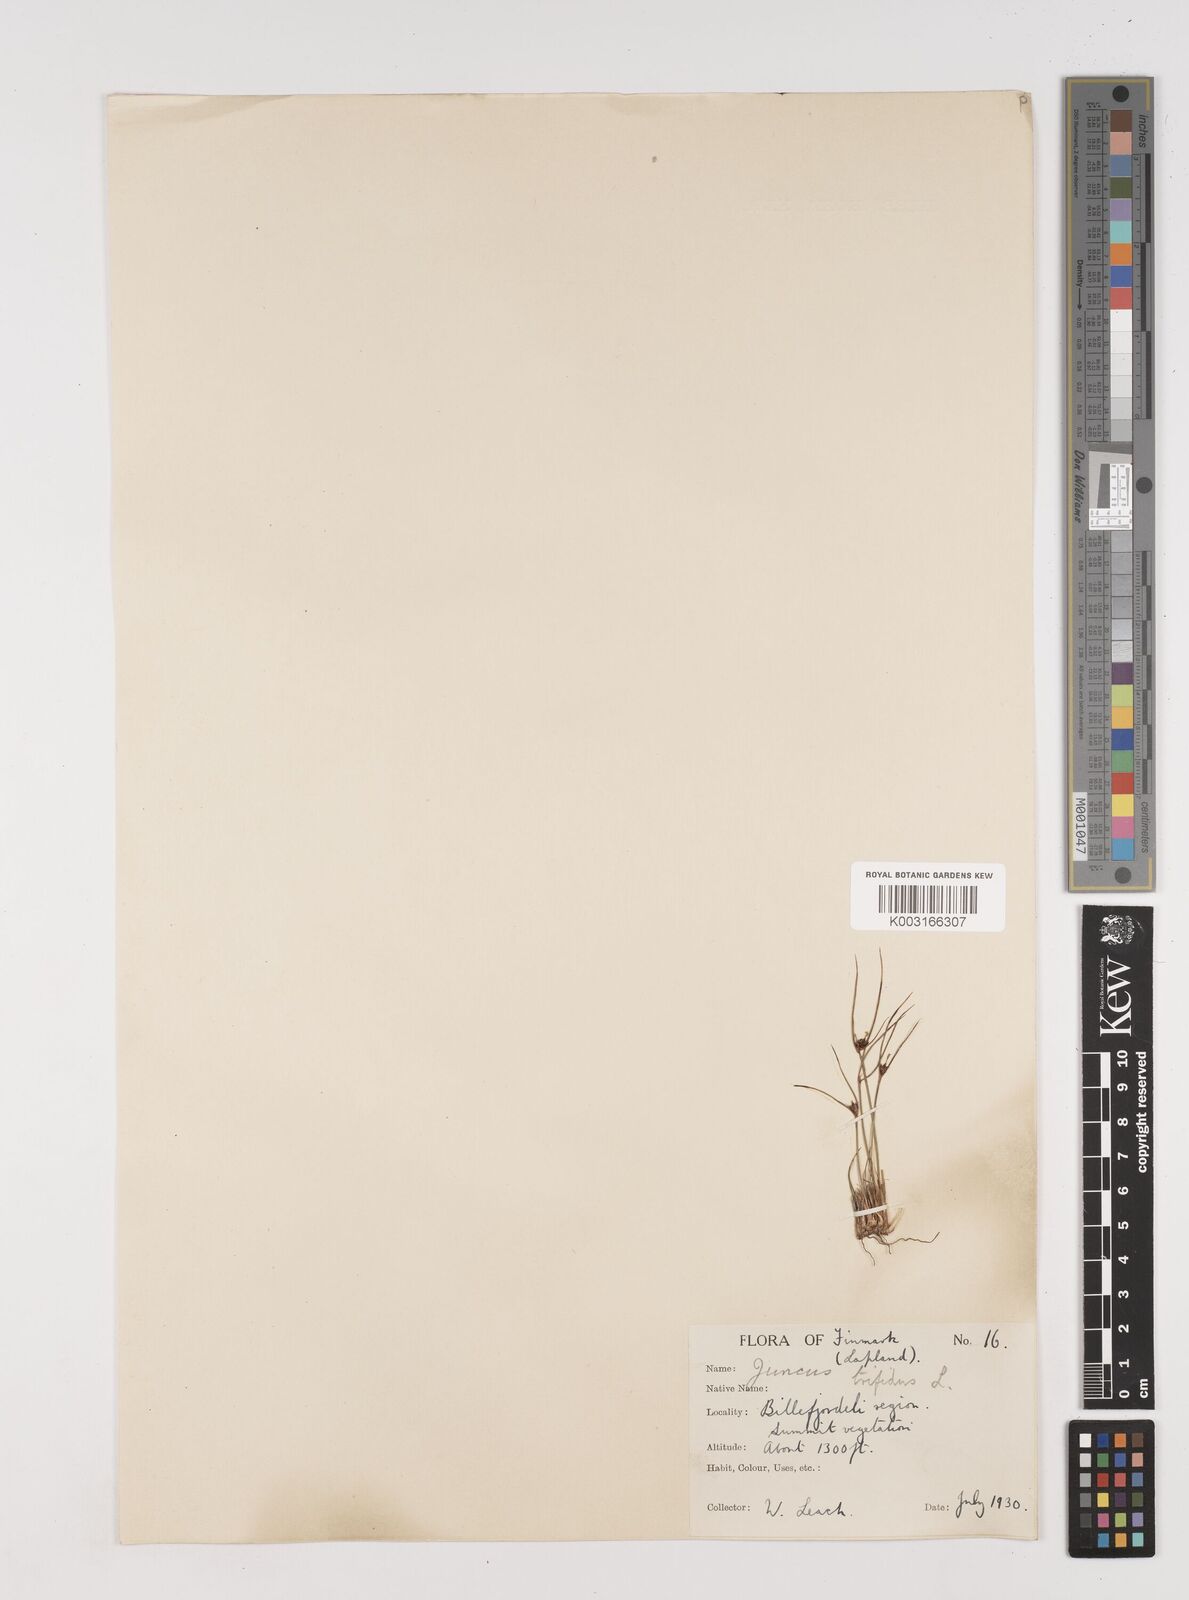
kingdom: Plantae
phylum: Tracheophyta
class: Liliopsida
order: Poales
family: Juncaceae
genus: Oreojuncus
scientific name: Oreojuncus trifidus
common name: Highland rush
